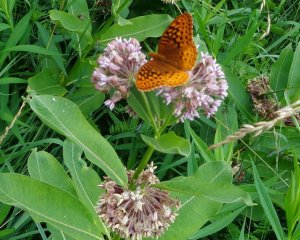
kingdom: Animalia
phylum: Arthropoda
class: Insecta
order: Lepidoptera
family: Nymphalidae
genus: Speyeria
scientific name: Speyeria cybele
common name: Great Spangled Fritillary
